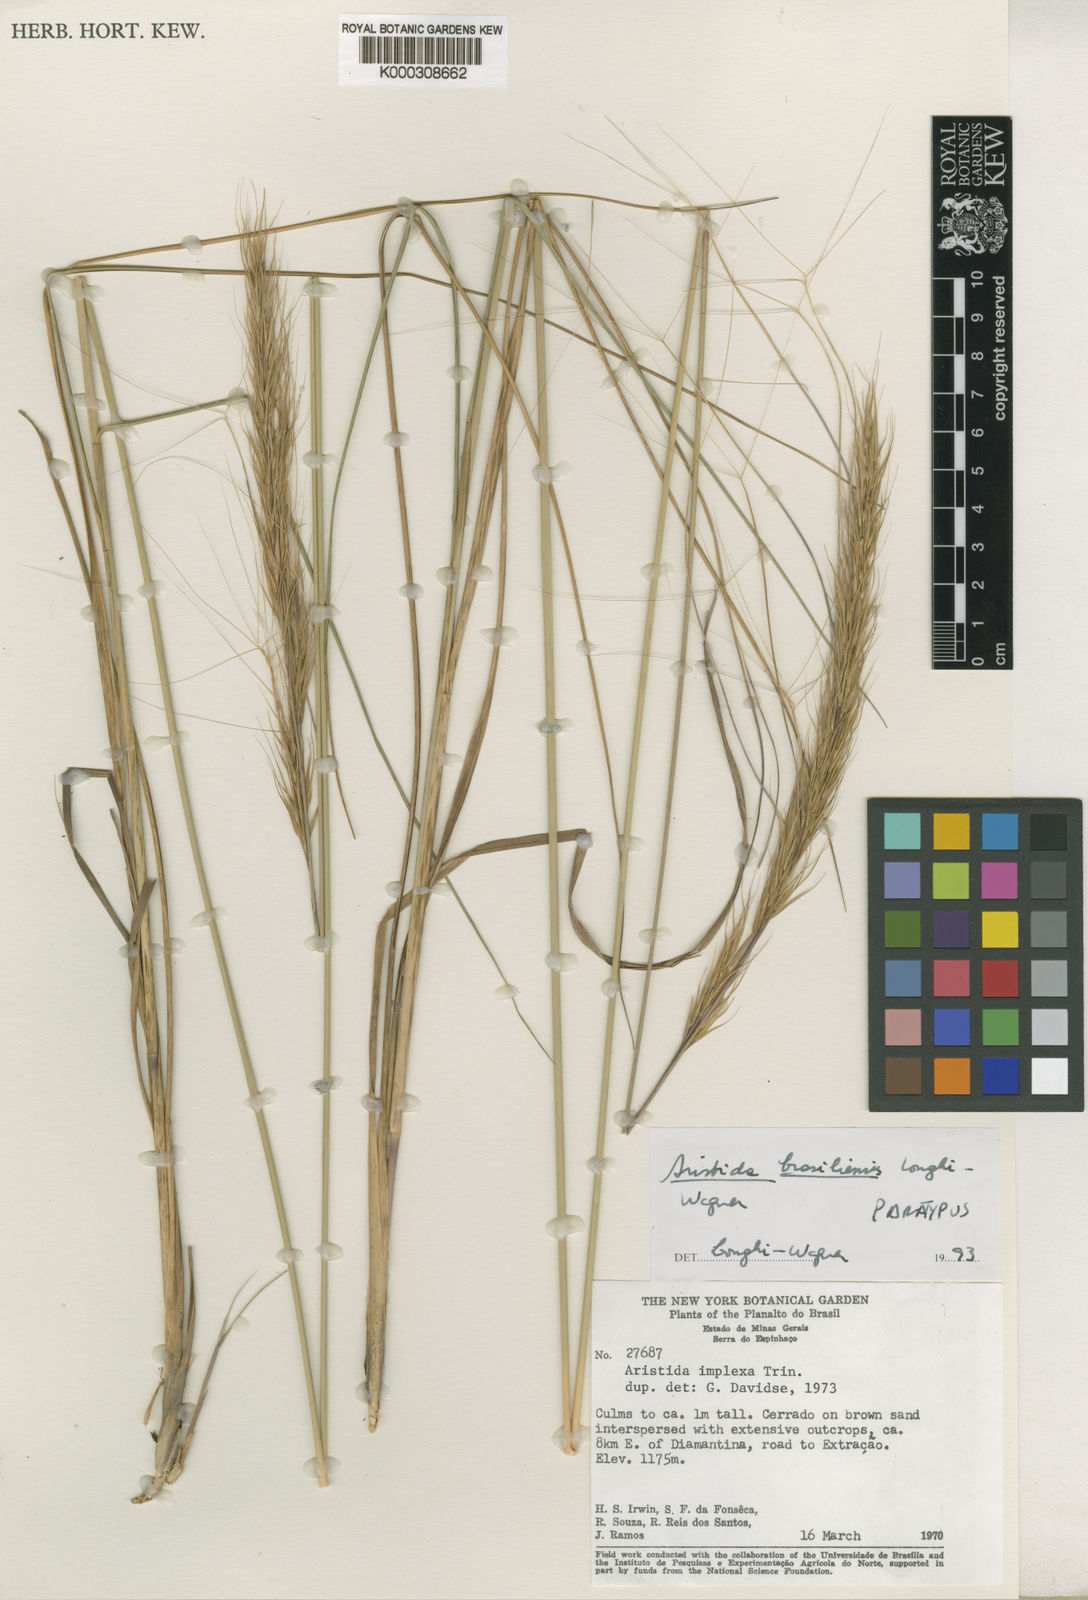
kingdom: Plantae
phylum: Tracheophyta
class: Liliopsida
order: Poales
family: Poaceae
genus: Aristida
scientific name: Aristida brasiliensis
